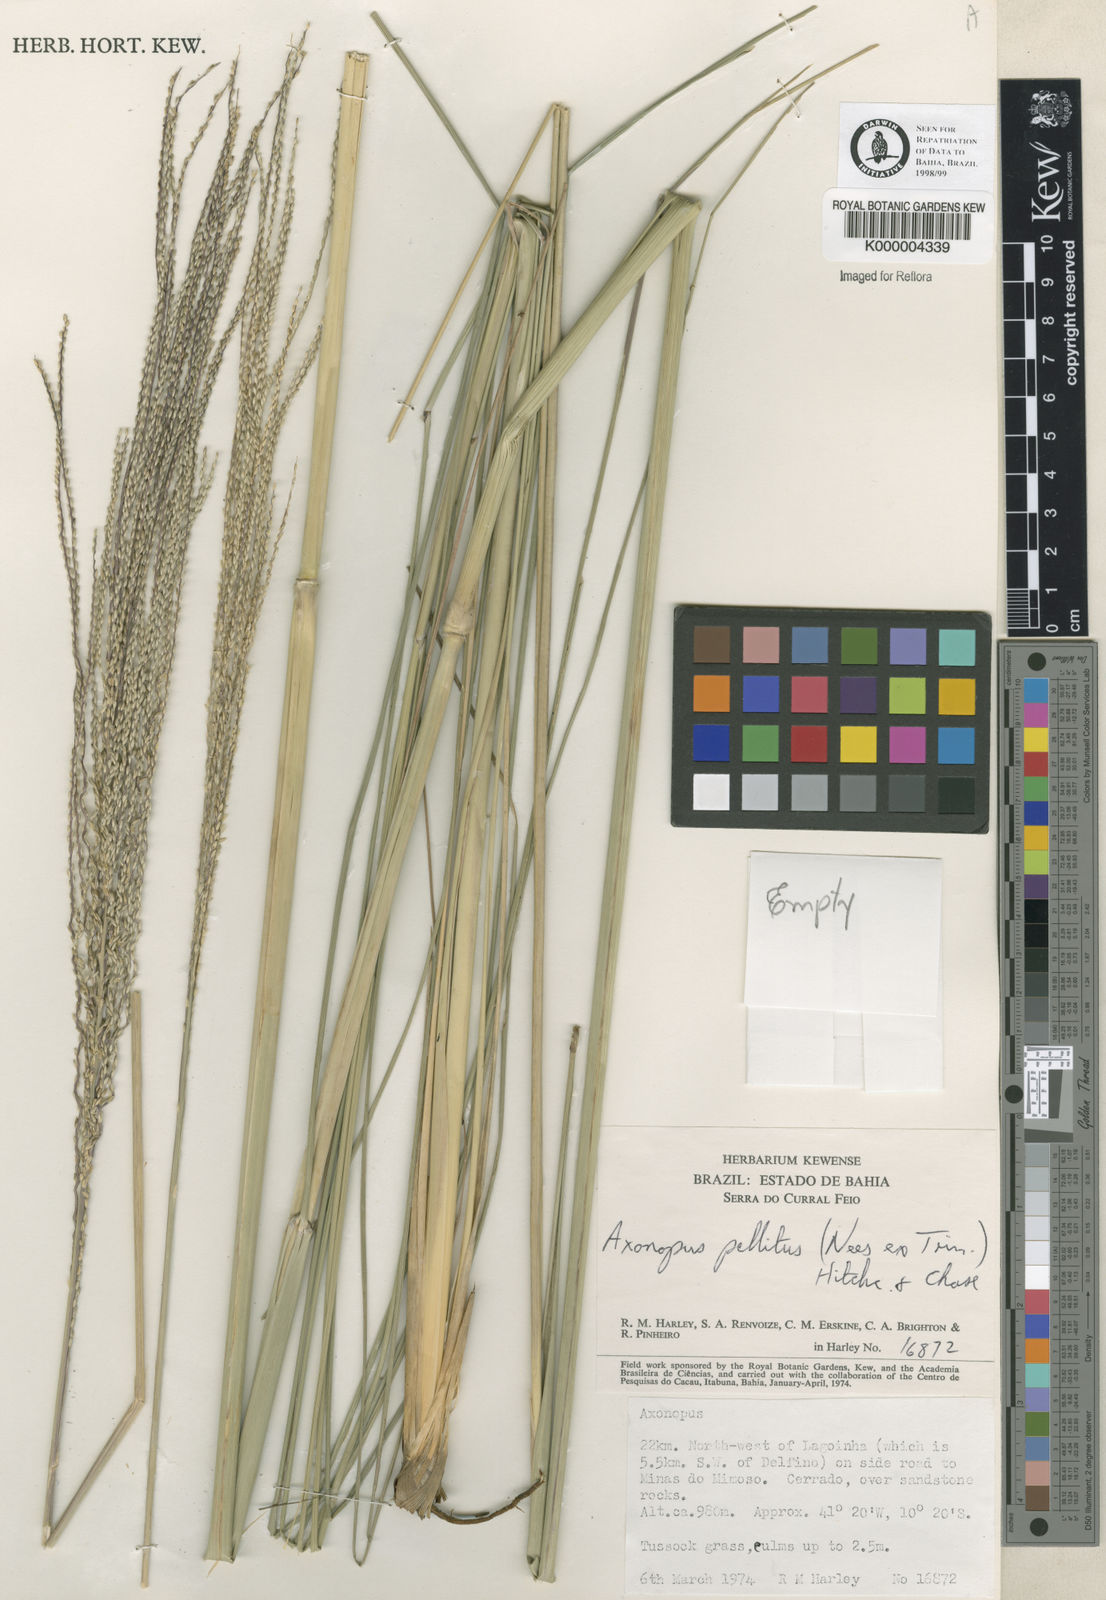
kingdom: Plantae
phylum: Tracheophyta
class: Liliopsida
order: Poales
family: Poaceae
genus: Axonopus
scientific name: Axonopus
